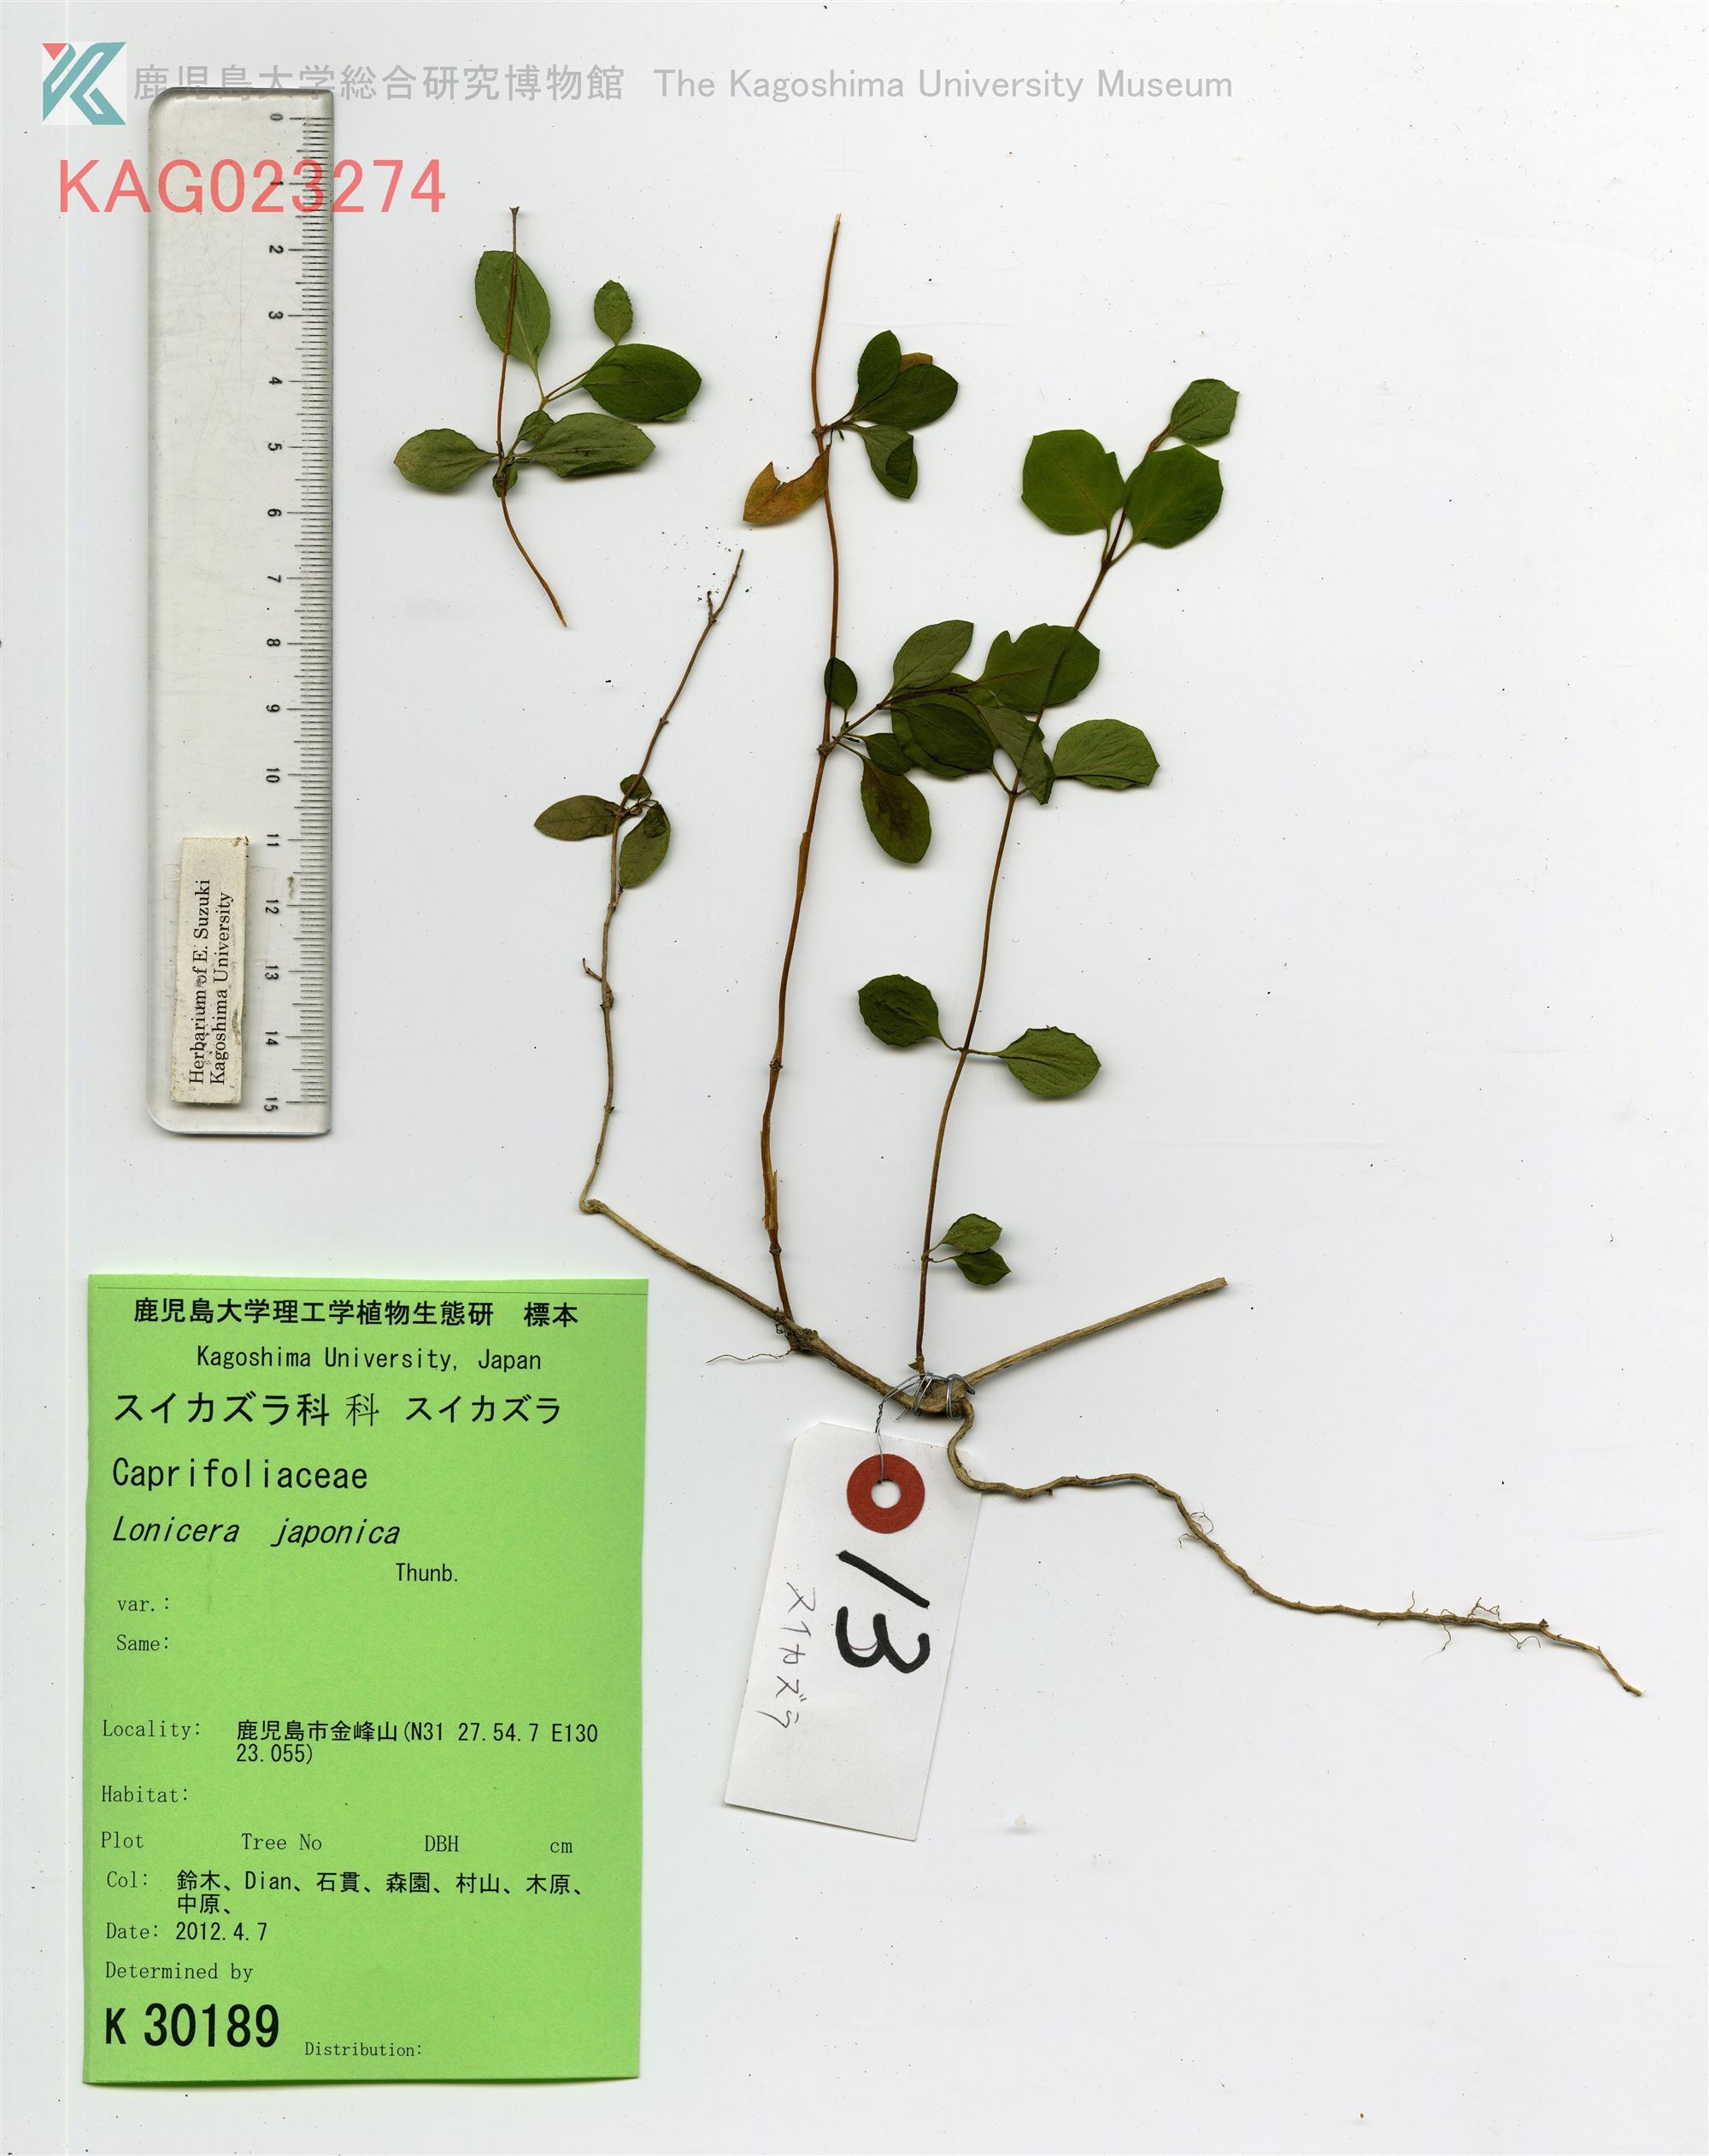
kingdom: Plantae
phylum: Tracheophyta
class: Magnoliopsida
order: Dipsacales
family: Caprifoliaceae
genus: Lonicera
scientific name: Lonicera japonica
